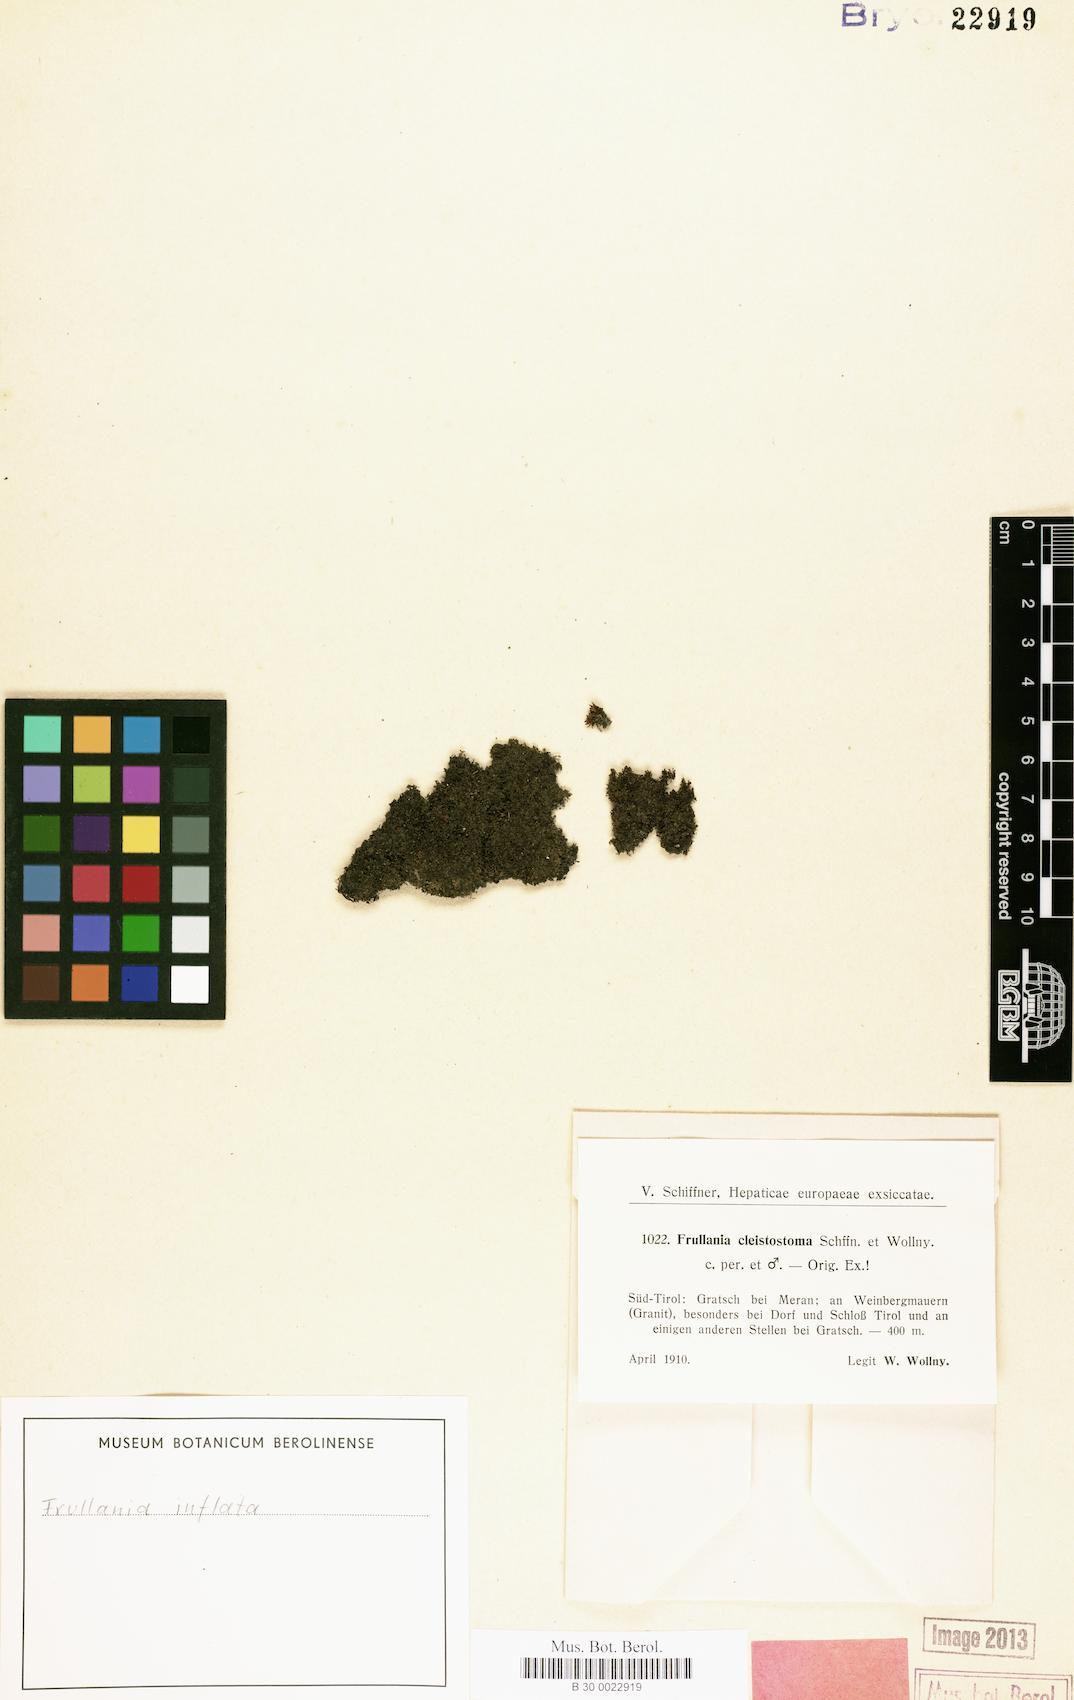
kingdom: Plantae
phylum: Marchantiophyta
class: Jungermanniopsida
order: Porellales
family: Frullaniaceae
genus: Frullania
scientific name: Frullania inflata
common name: Inflated scalewort
